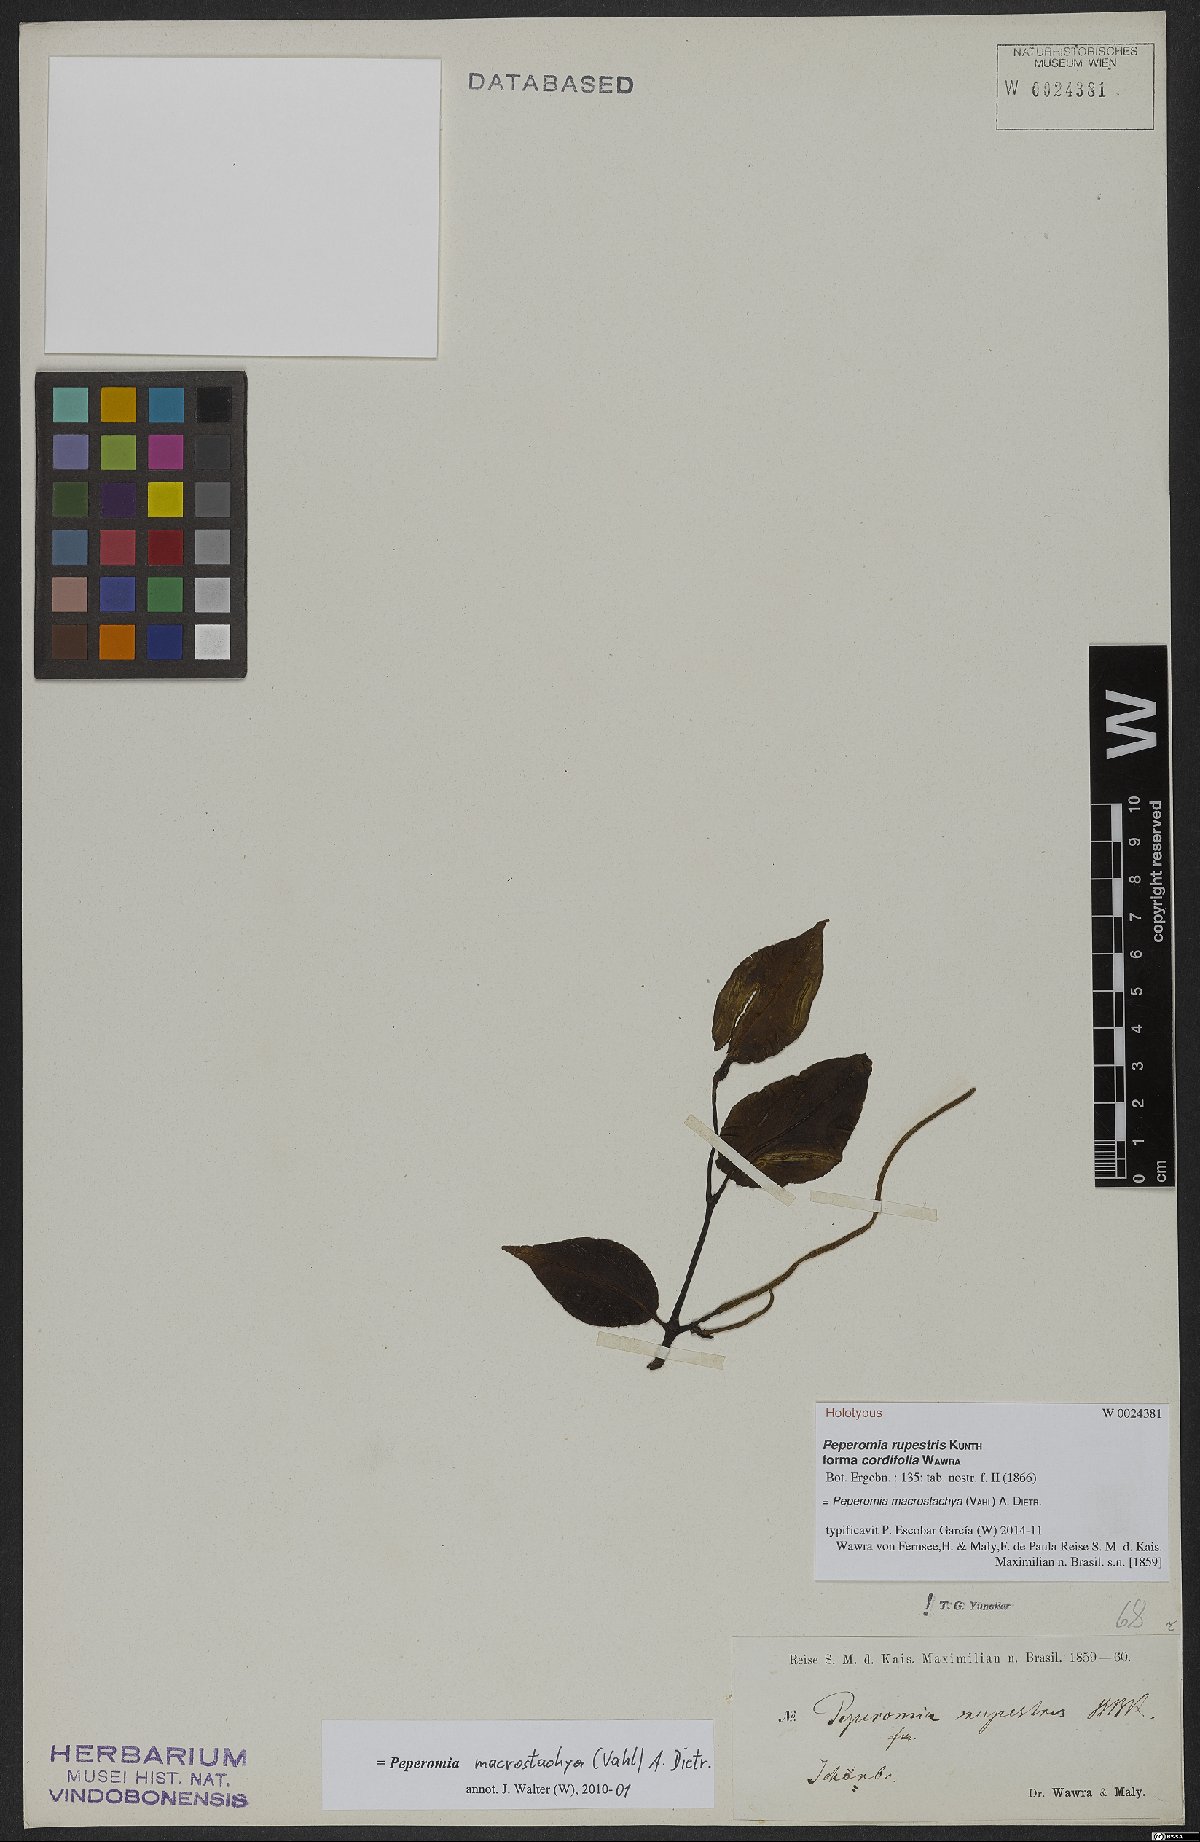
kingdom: Plantae
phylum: Tracheophyta
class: Magnoliopsida
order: Piperales
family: Piperaceae
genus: Peperomia
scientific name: Peperomia macrostachyos
